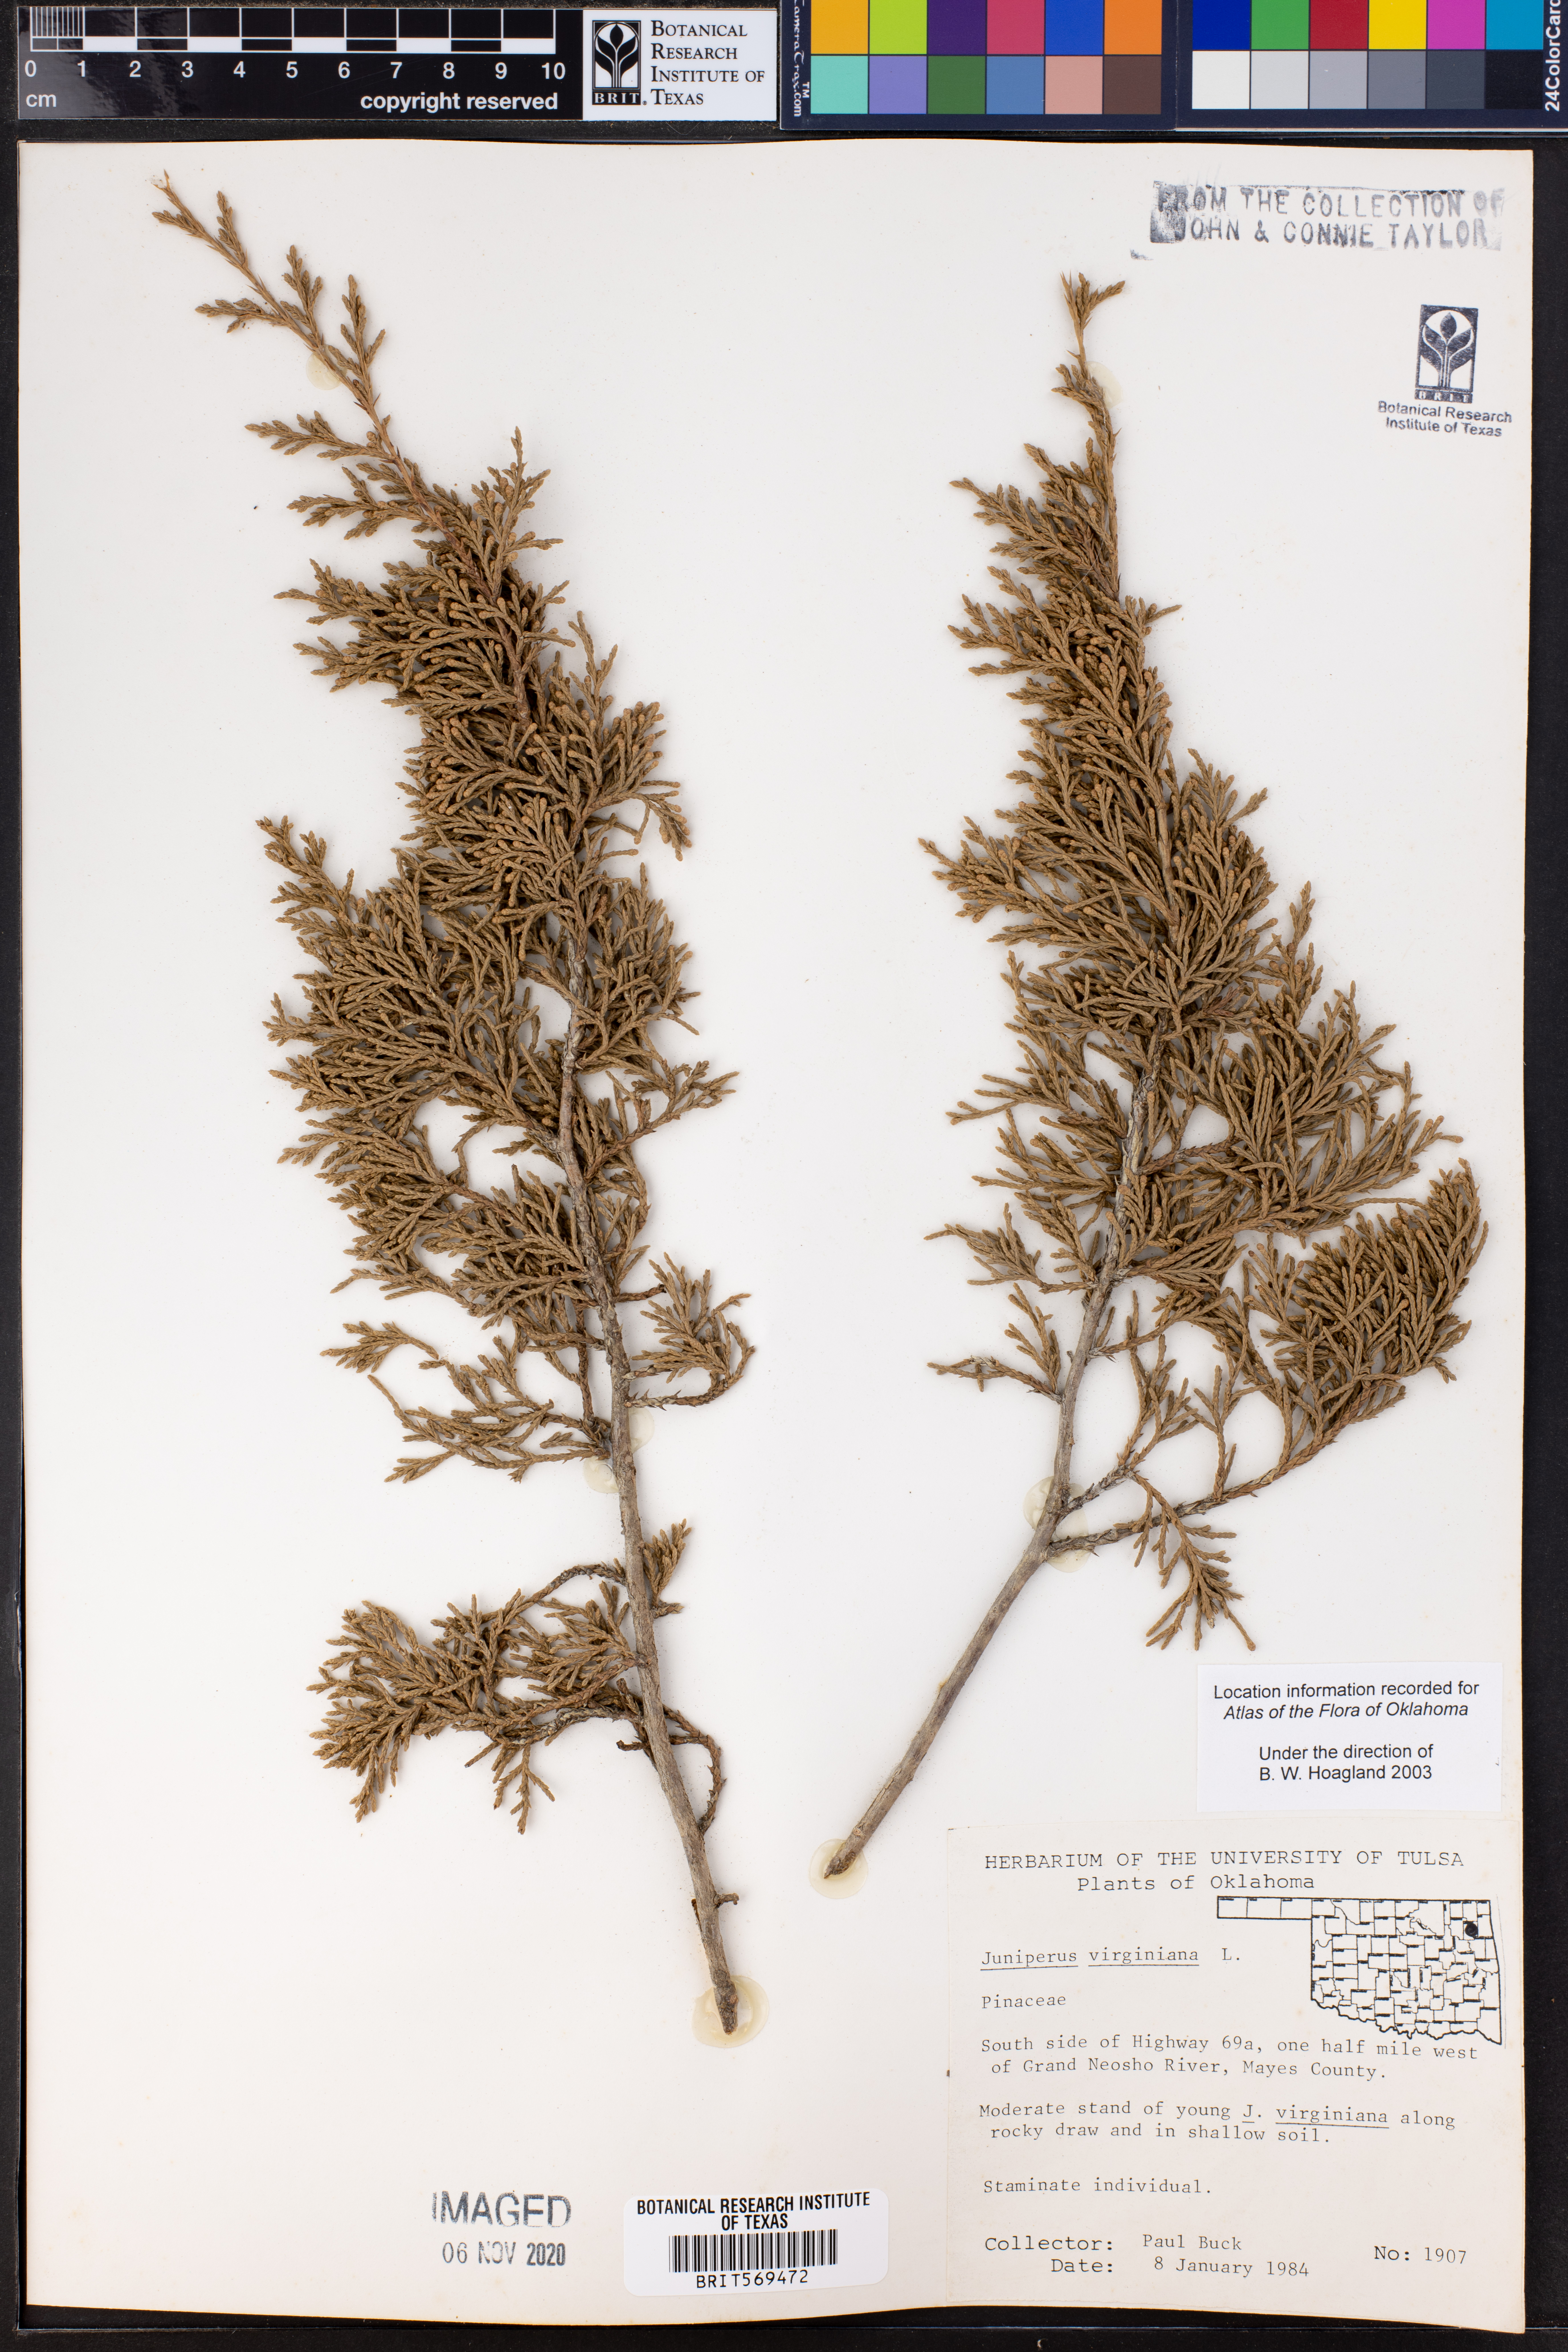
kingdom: Plantae
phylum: Tracheophyta
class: Pinopsida
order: Pinales
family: Cupressaceae
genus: Juniperus
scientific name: Juniperus virginiana
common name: Red juniper
